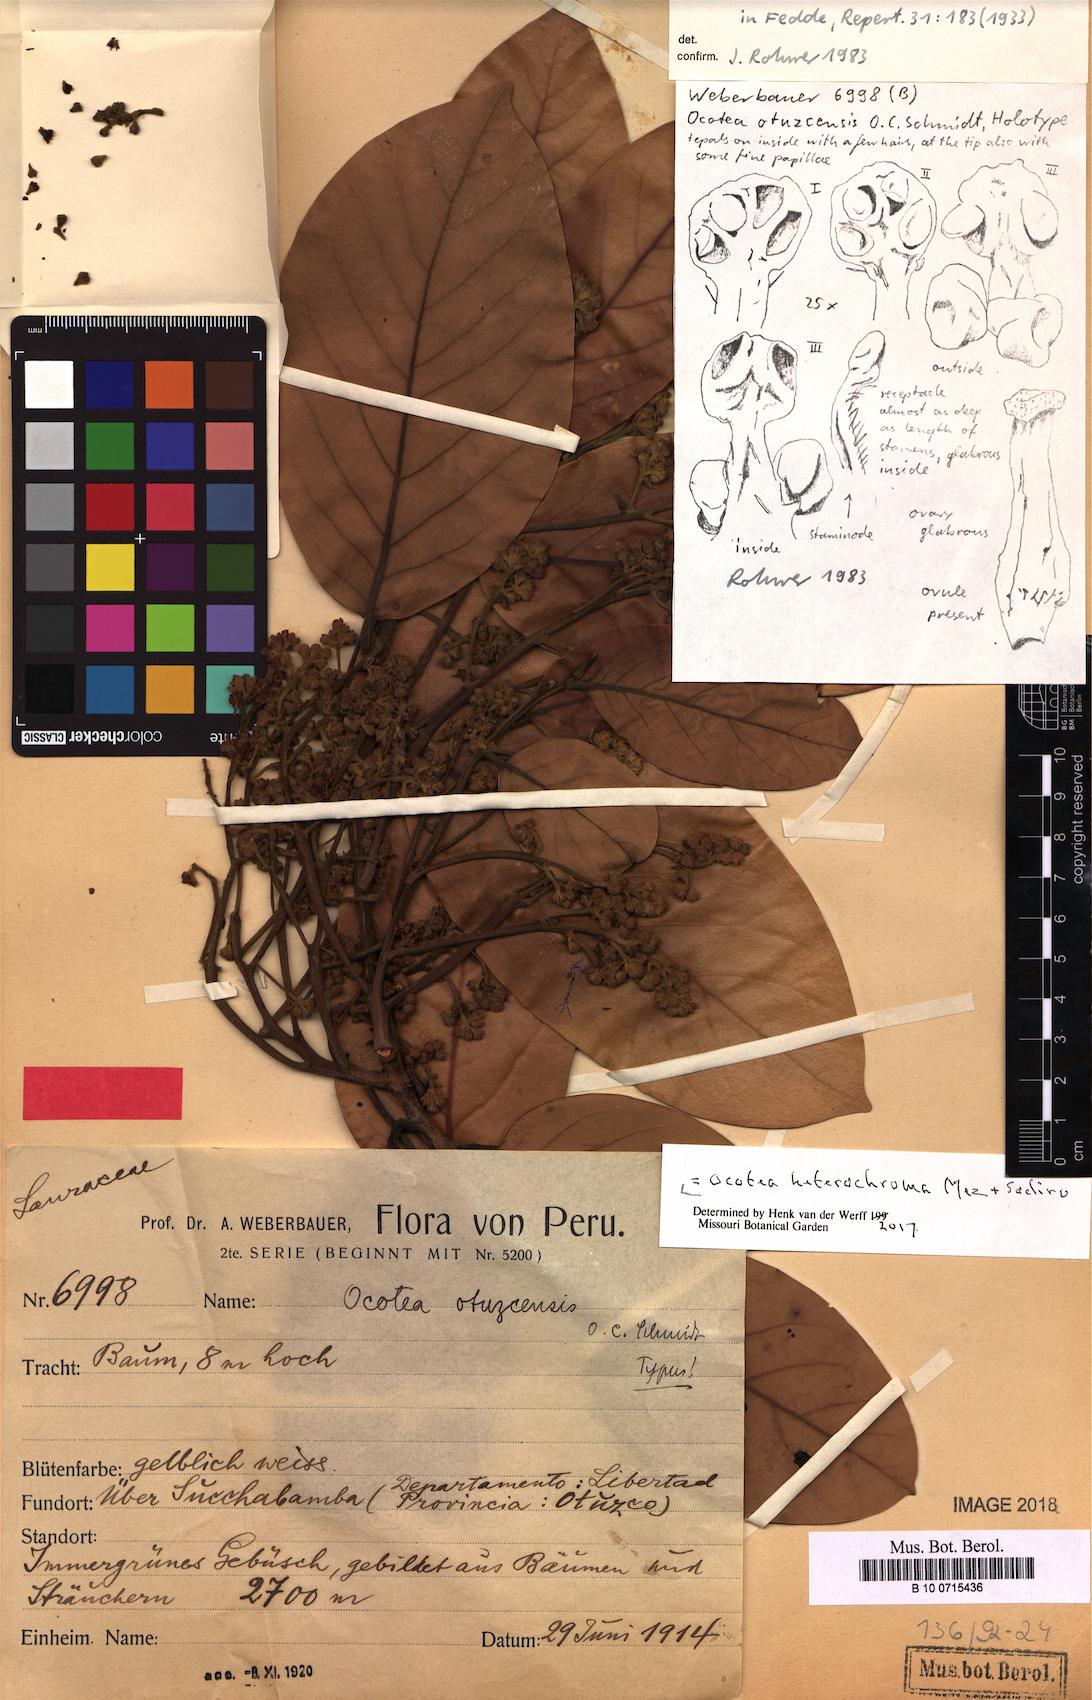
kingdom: Plantae
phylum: Tracheophyta
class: Magnoliopsida
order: Laurales
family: Lauraceae
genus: Ocotea
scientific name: Ocotea heterochroma
